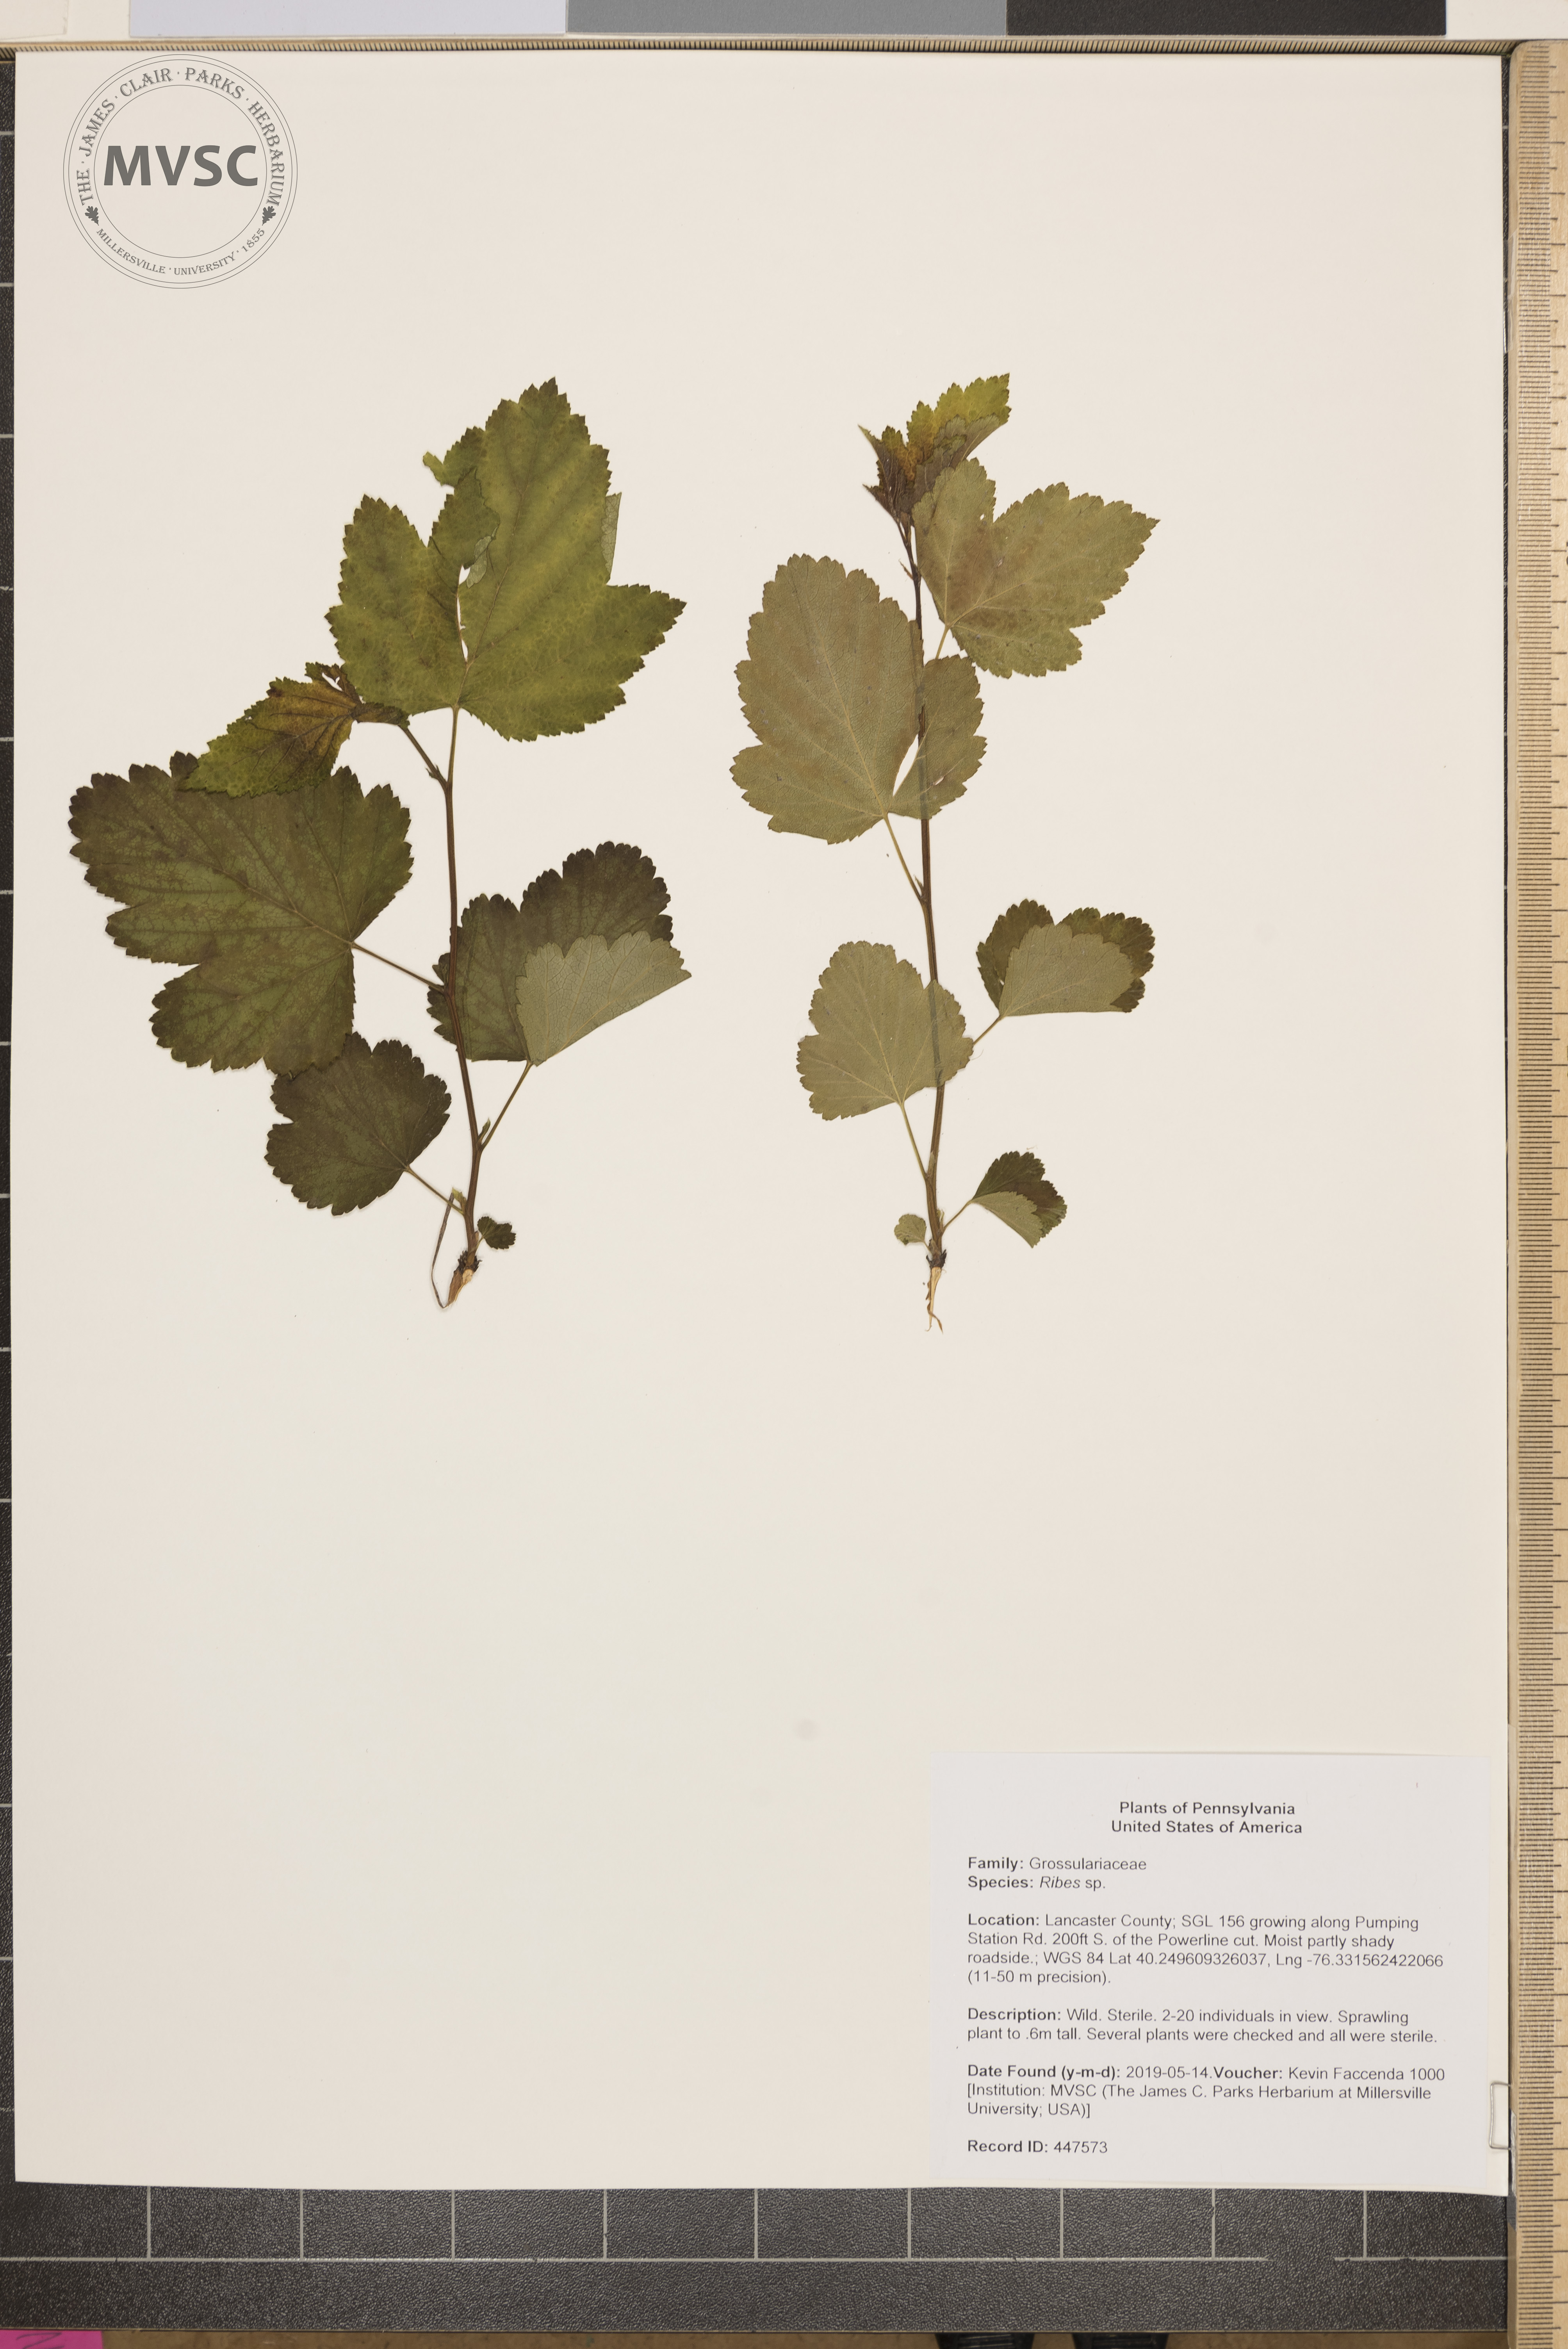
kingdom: Plantae
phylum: Tracheophyta
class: Magnoliopsida
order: Saxifragales
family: Grossulariaceae
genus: Ribes
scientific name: Ribes
